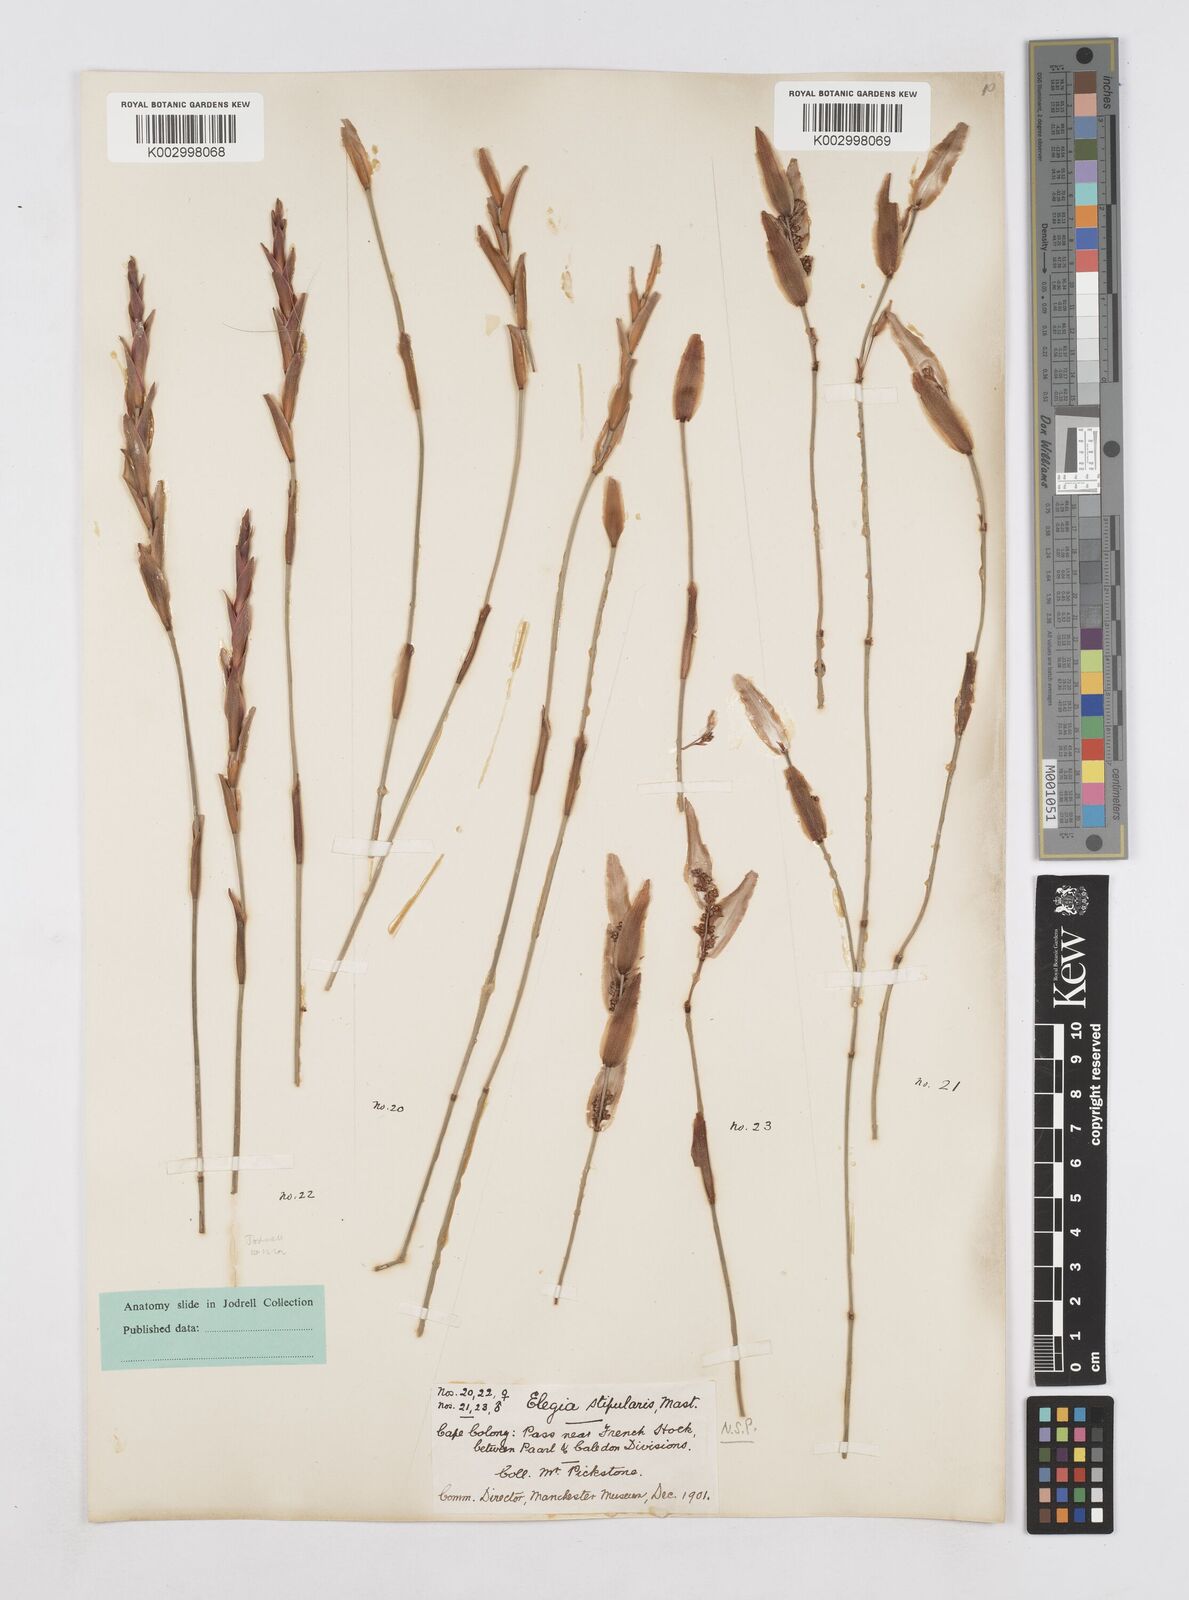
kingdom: Plantae
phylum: Tracheophyta
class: Liliopsida
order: Poales
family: Restionaceae
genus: Elegia
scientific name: Elegia
